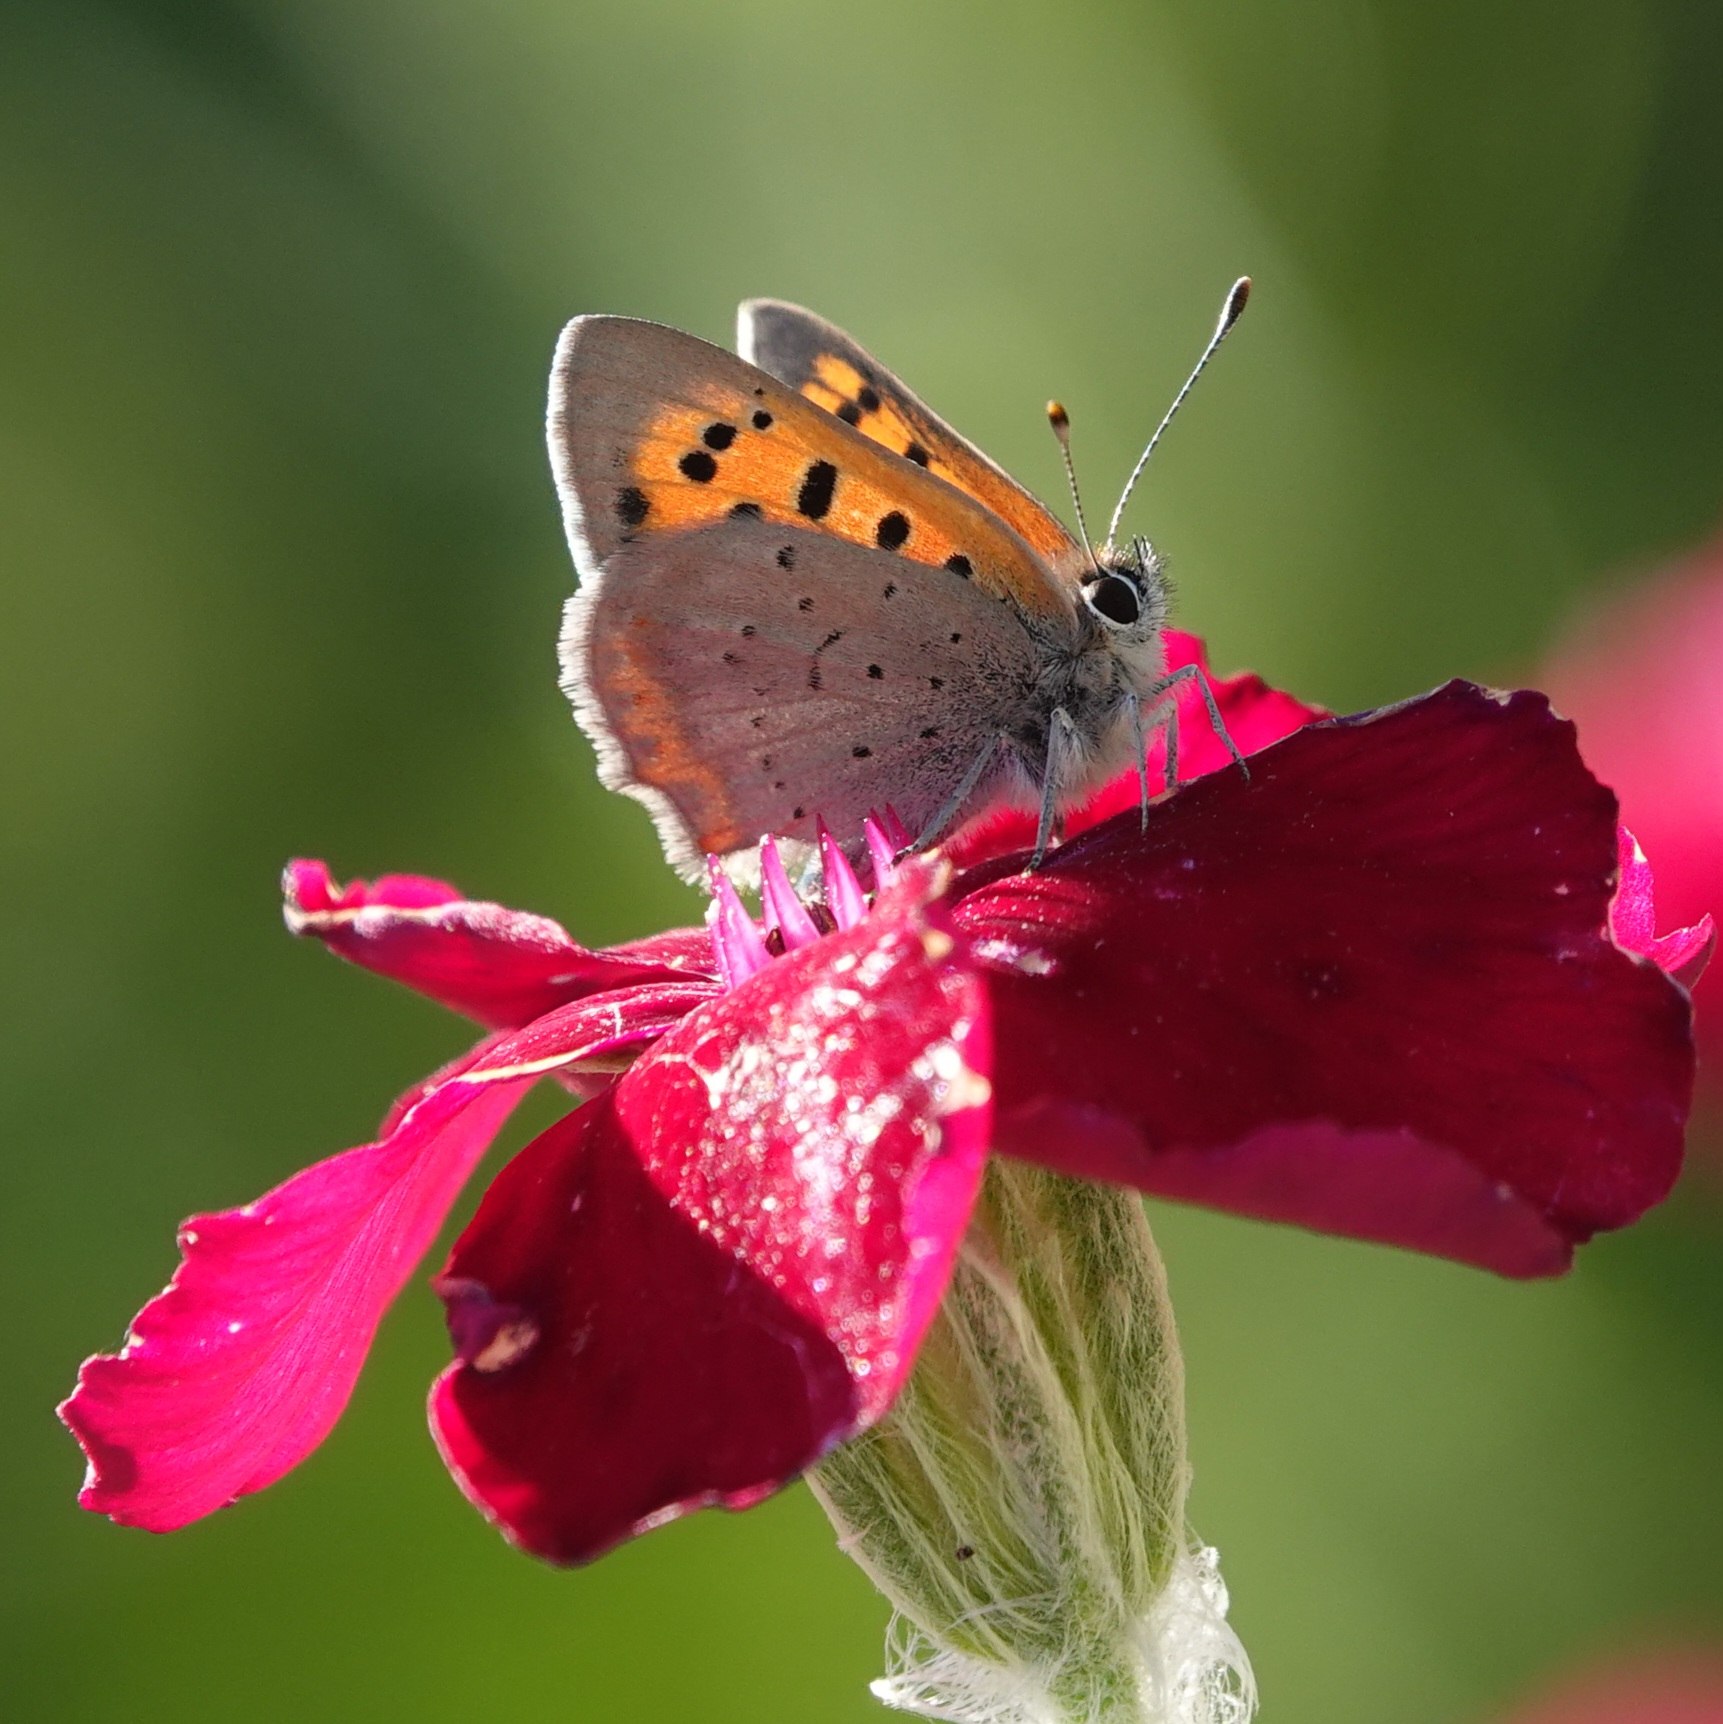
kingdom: Animalia
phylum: Arthropoda
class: Insecta
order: Lepidoptera
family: Lycaenidae
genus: Lycaena
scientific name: Lycaena phlaeas
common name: Lille ildfugl
